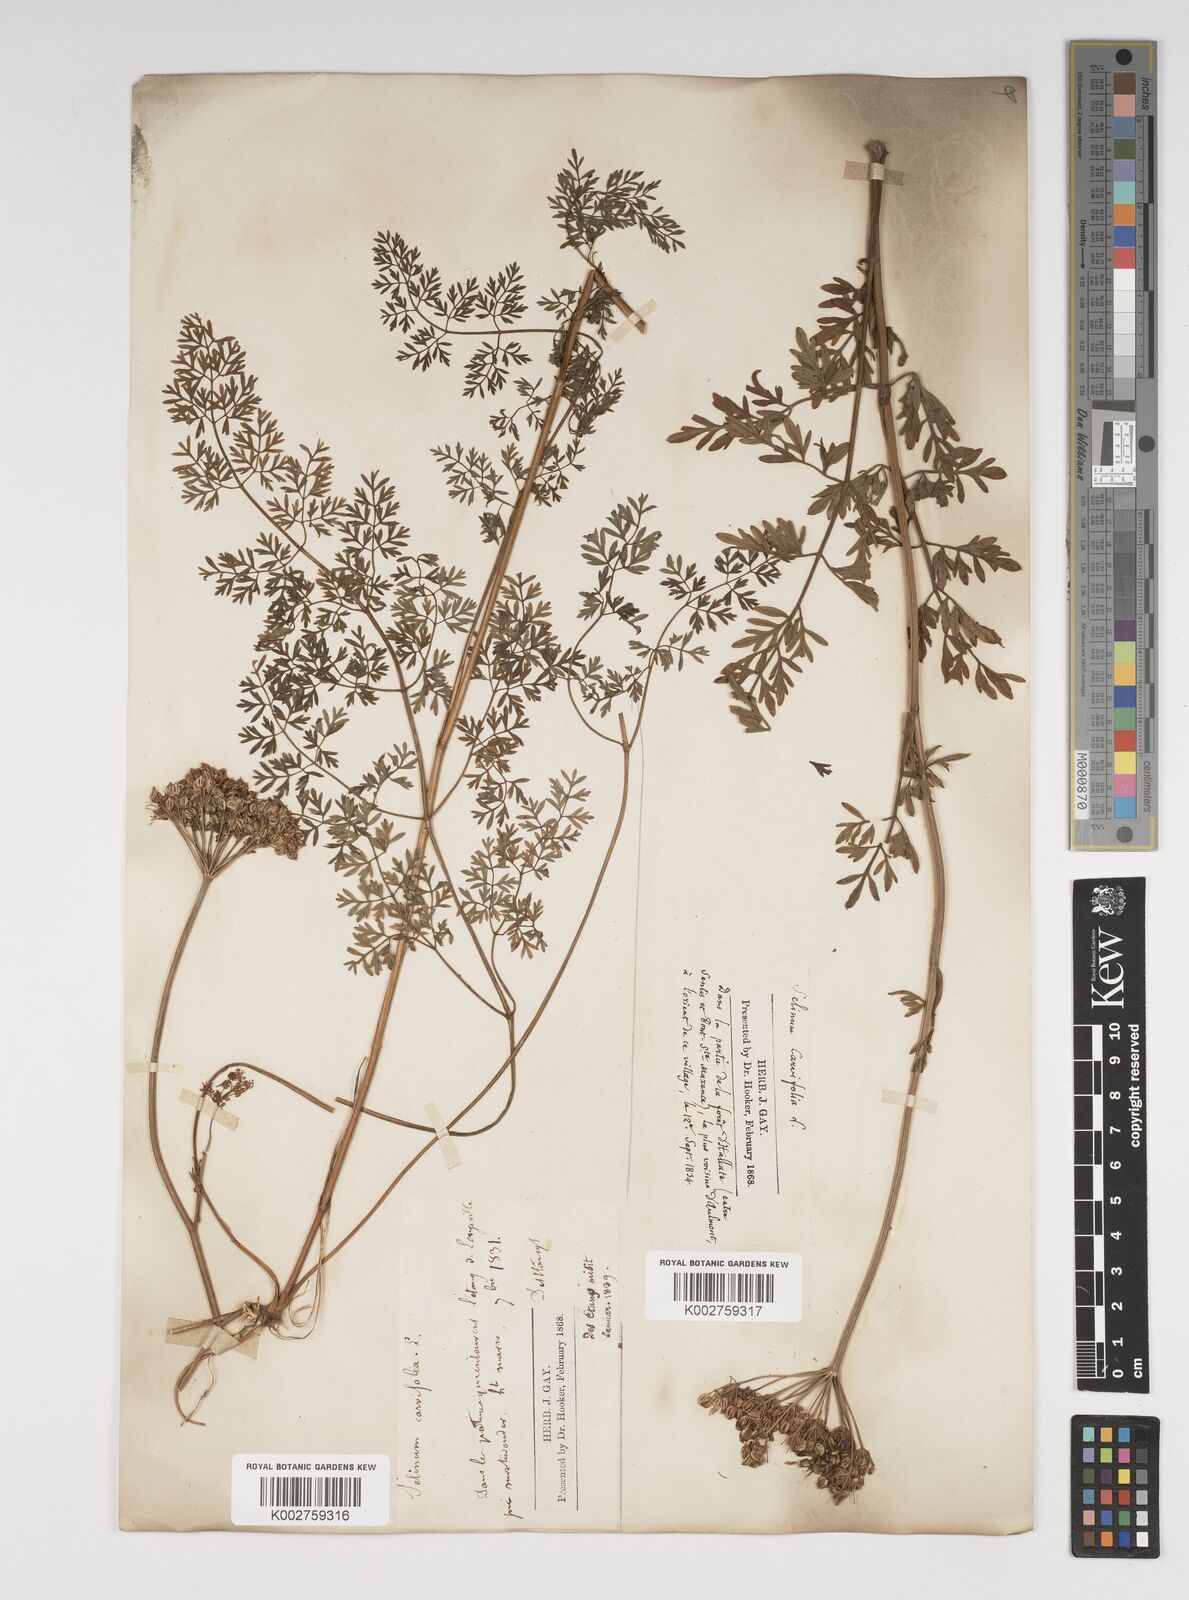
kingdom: Plantae
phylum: Tracheophyta
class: Magnoliopsida
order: Apiales
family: Apiaceae
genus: Selinum
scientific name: Selinum carvifolia
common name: Cambridge milk-parsley
